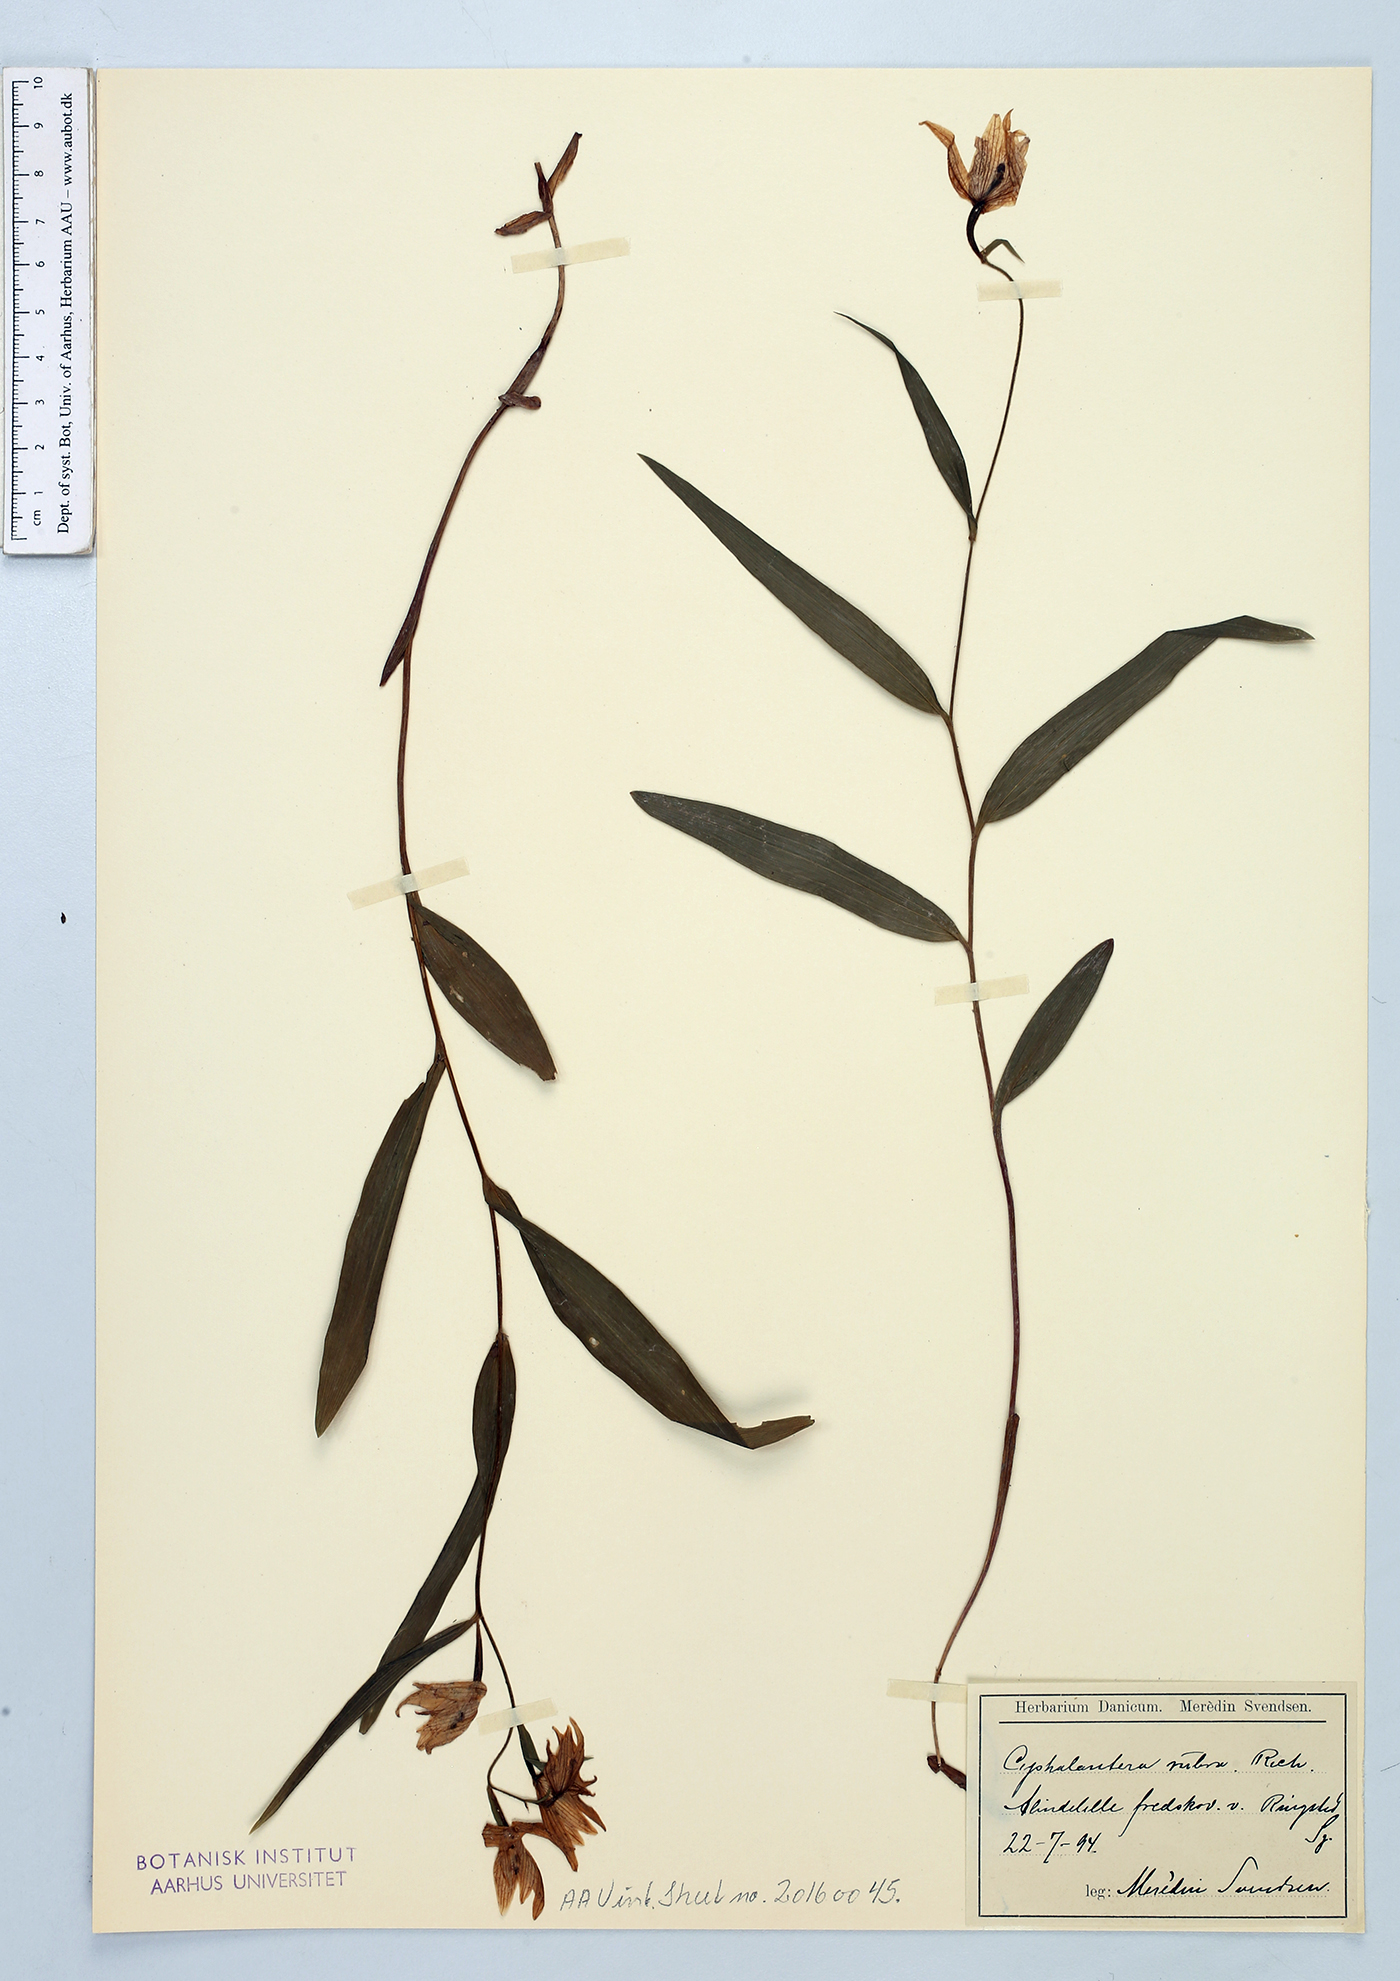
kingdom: Plantae
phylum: Tracheophyta
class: Liliopsida
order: Asparagales
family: Orchidaceae
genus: Cephalanthera
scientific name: Cephalanthera rubra
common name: Red helleborine
